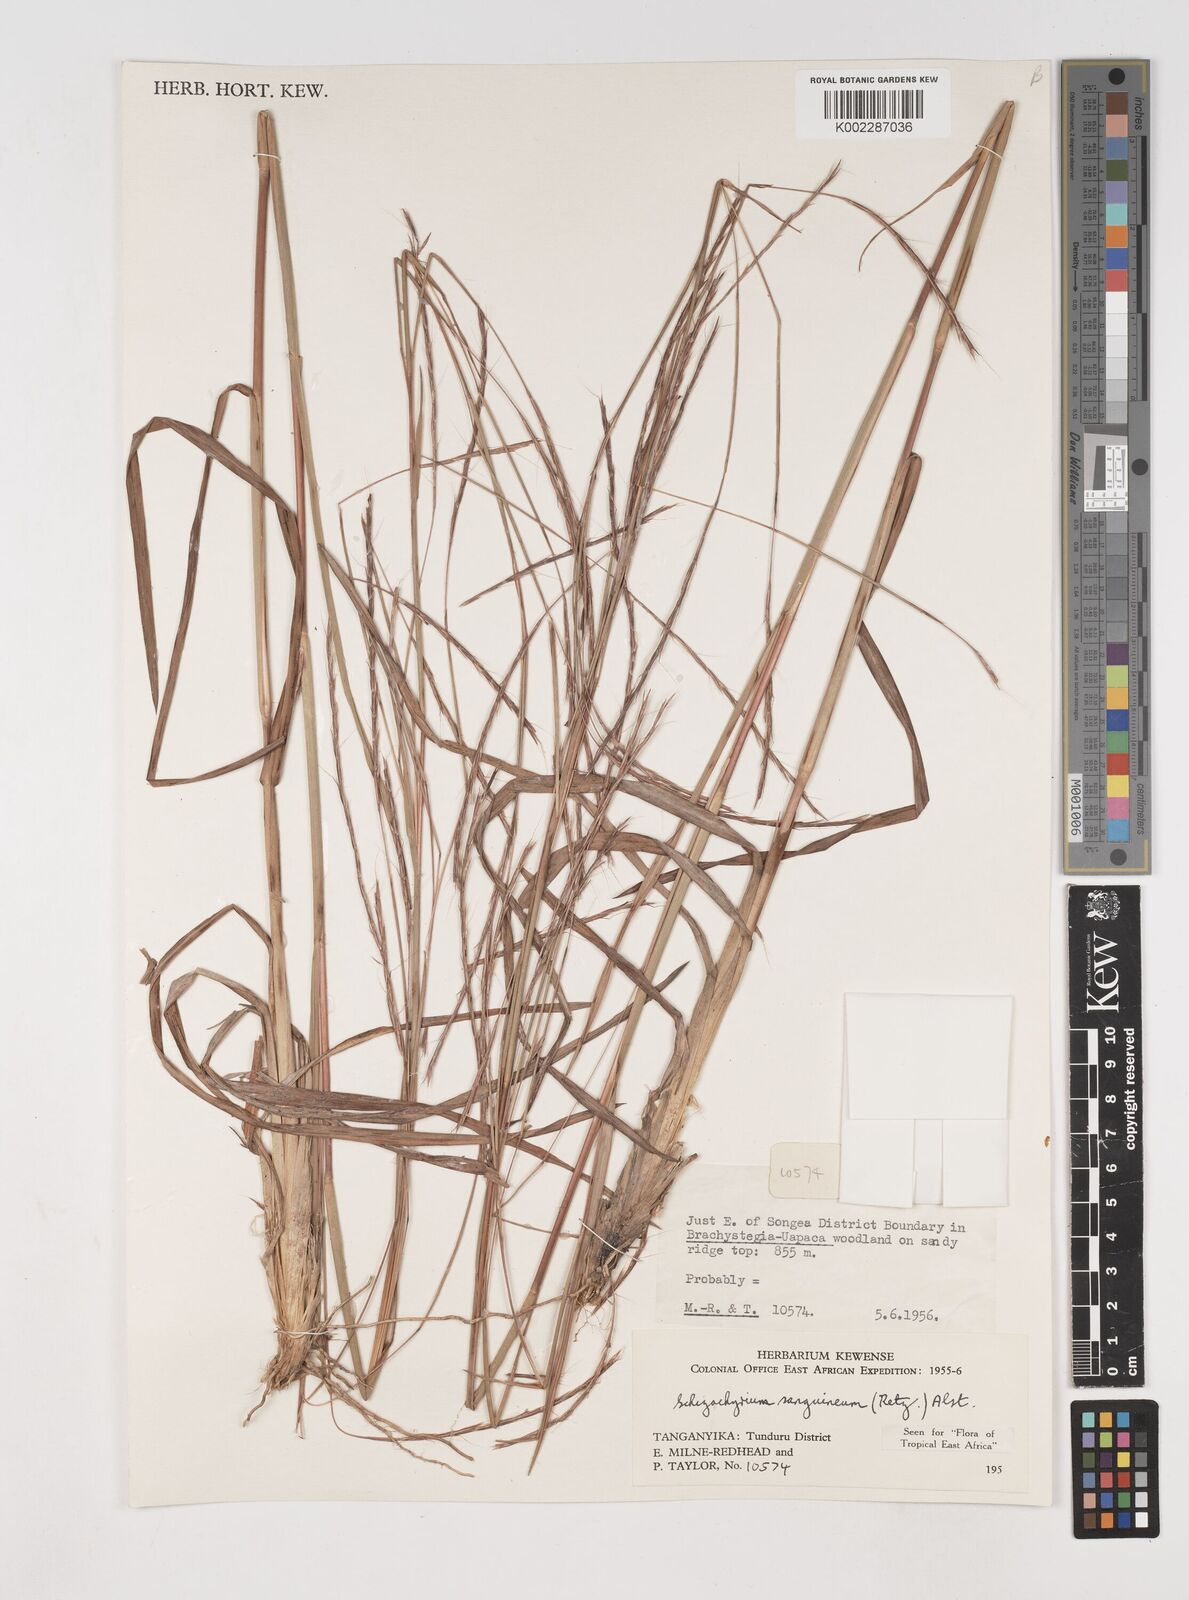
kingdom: Plantae
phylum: Tracheophyta
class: Liliopsida
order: Poales
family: Poaceae
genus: Schizachyrium
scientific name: Schizachyrium sanguineum
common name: Crimson bluestem
